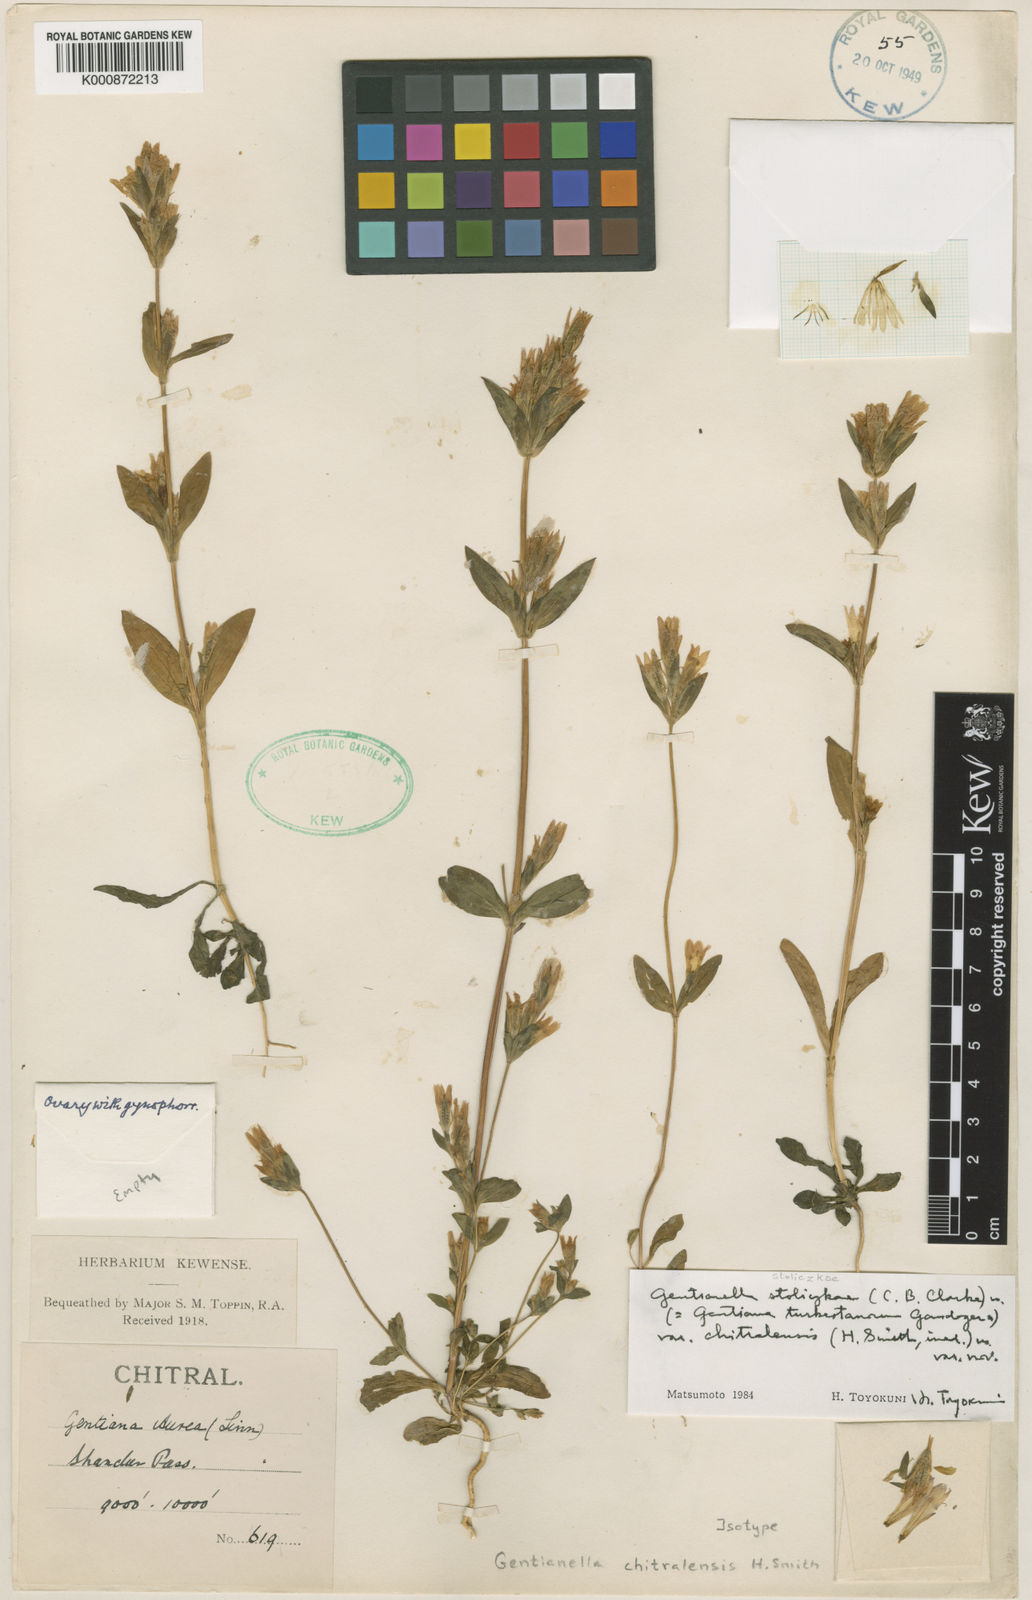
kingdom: Plantae
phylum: Tracheophyta
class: Magnoliopsida
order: Gentianales
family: Gentianaceae
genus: Gentiana
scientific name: Gentiana
